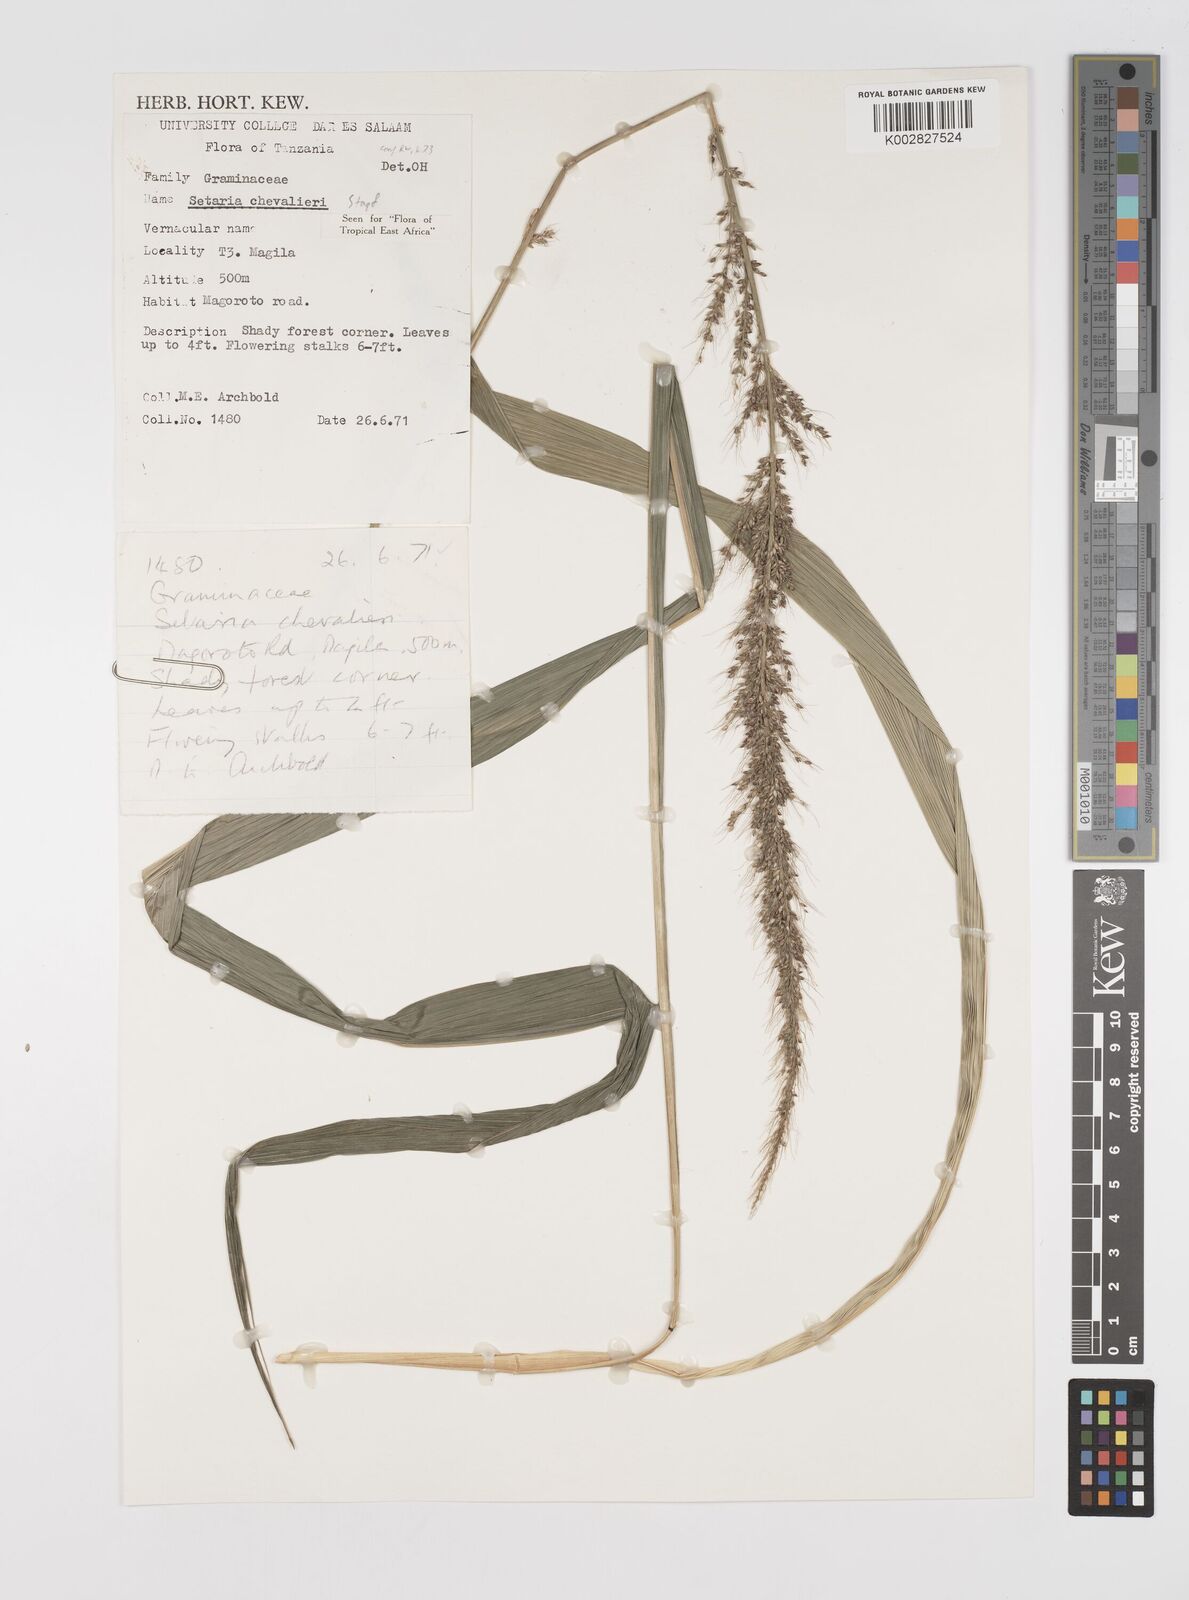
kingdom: Plantae
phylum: Tracheophyta
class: Liliopsida
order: Poales
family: Poaceae
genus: Setaria
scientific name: Setaria megaphylla
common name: Bigleaf bristlegrass
